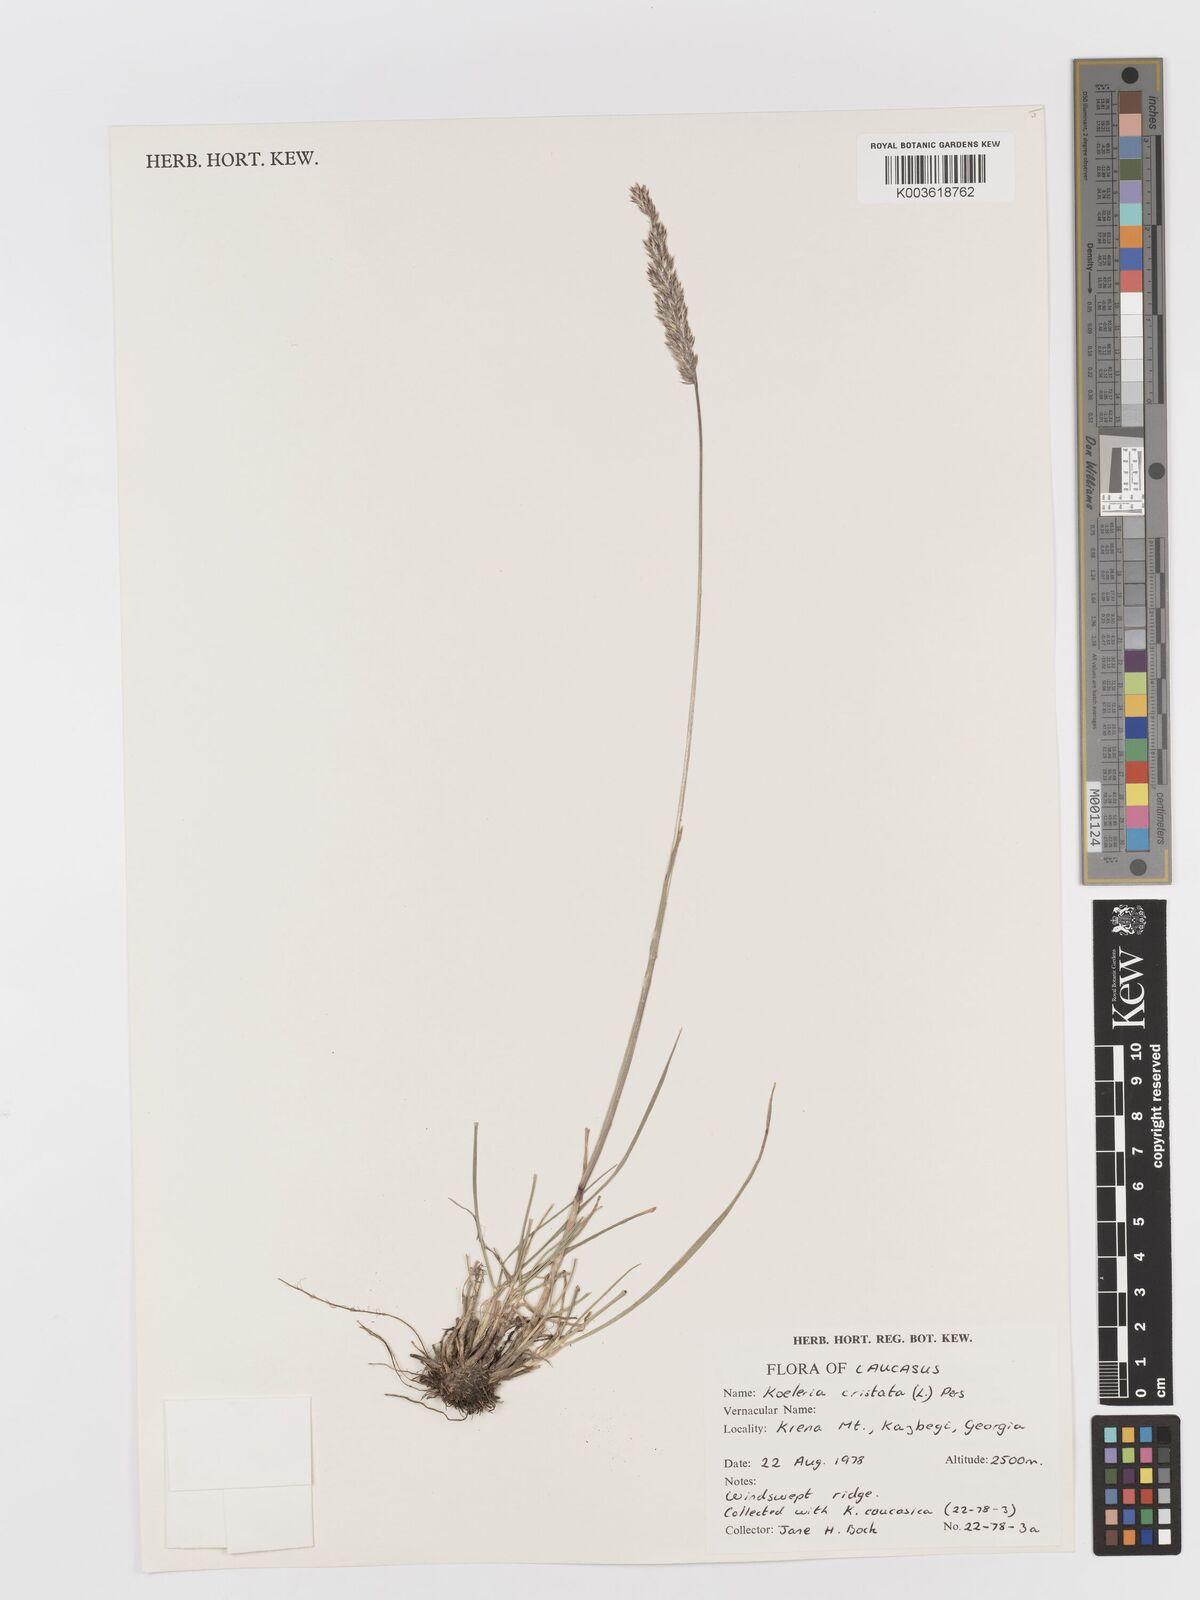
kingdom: Plantae
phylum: Tracheophyta
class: Liliopsida
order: Poales
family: Poaceae
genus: Rostraria
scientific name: Rostraria cristata
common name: Mediterranean hair-grass
